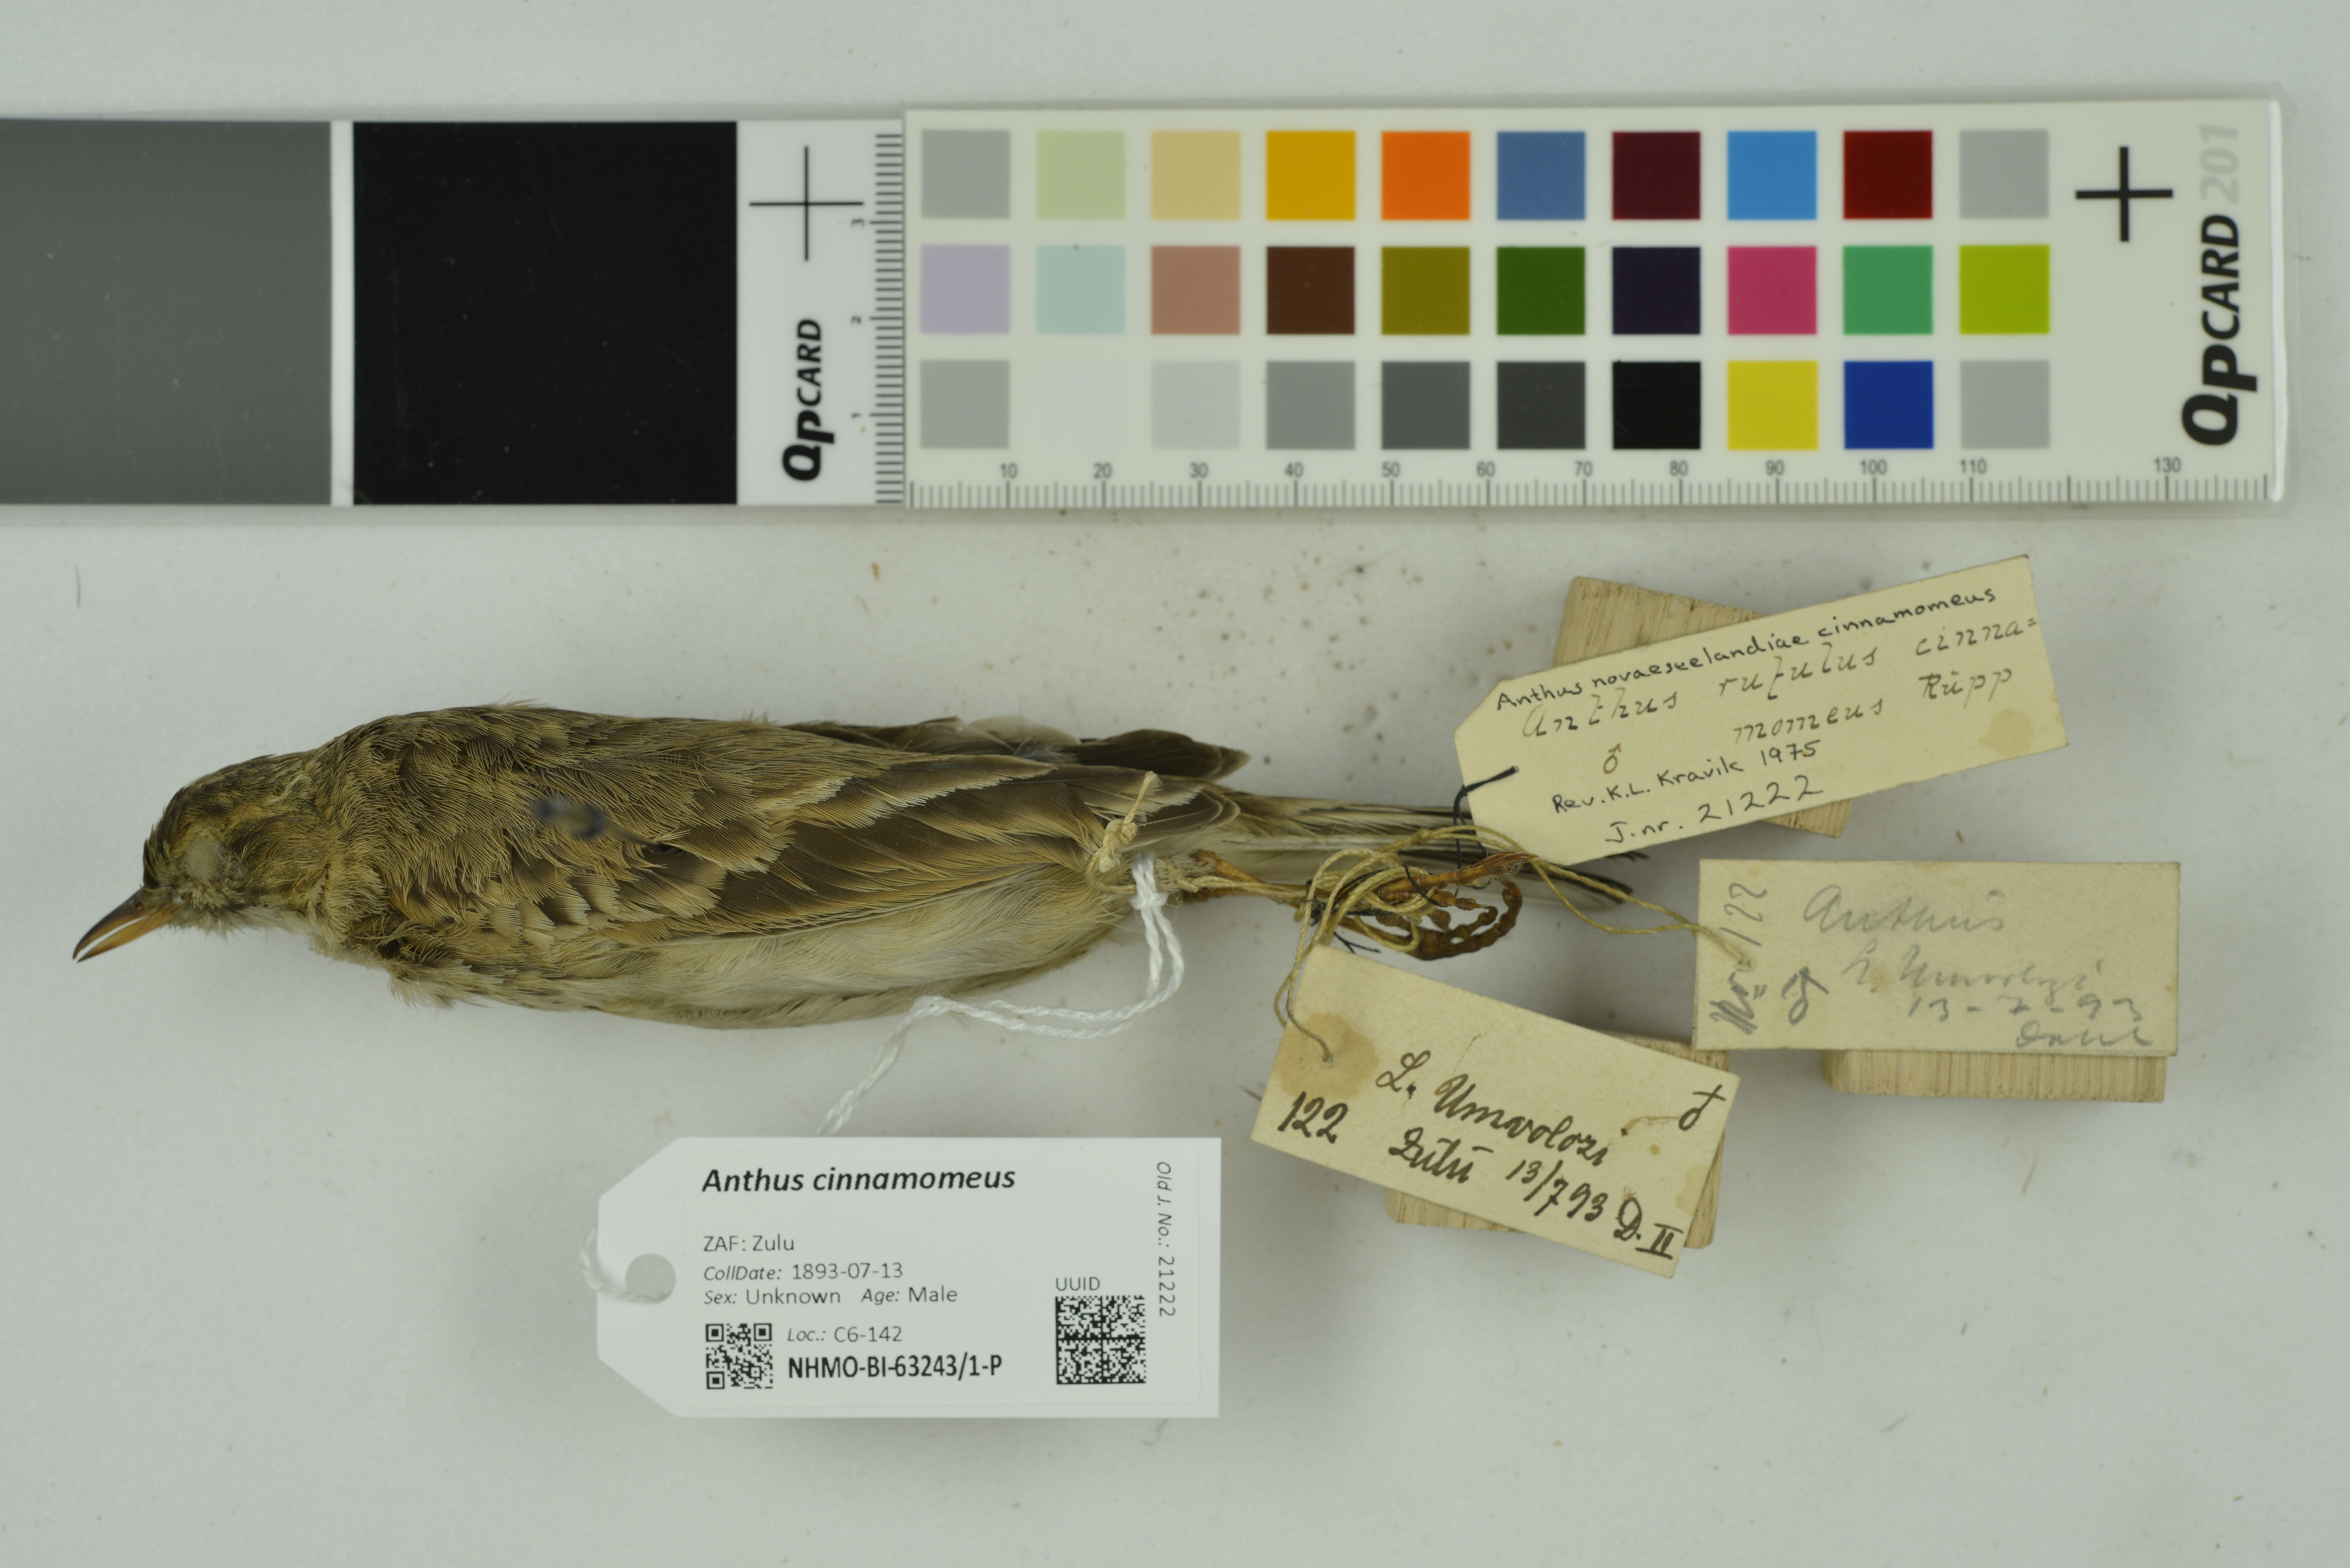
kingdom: Animalia
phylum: Chordata
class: Aves
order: Passeriformes
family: Motacillidae
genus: Anthus
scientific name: Anthus cinnamomeus
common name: African pipit
